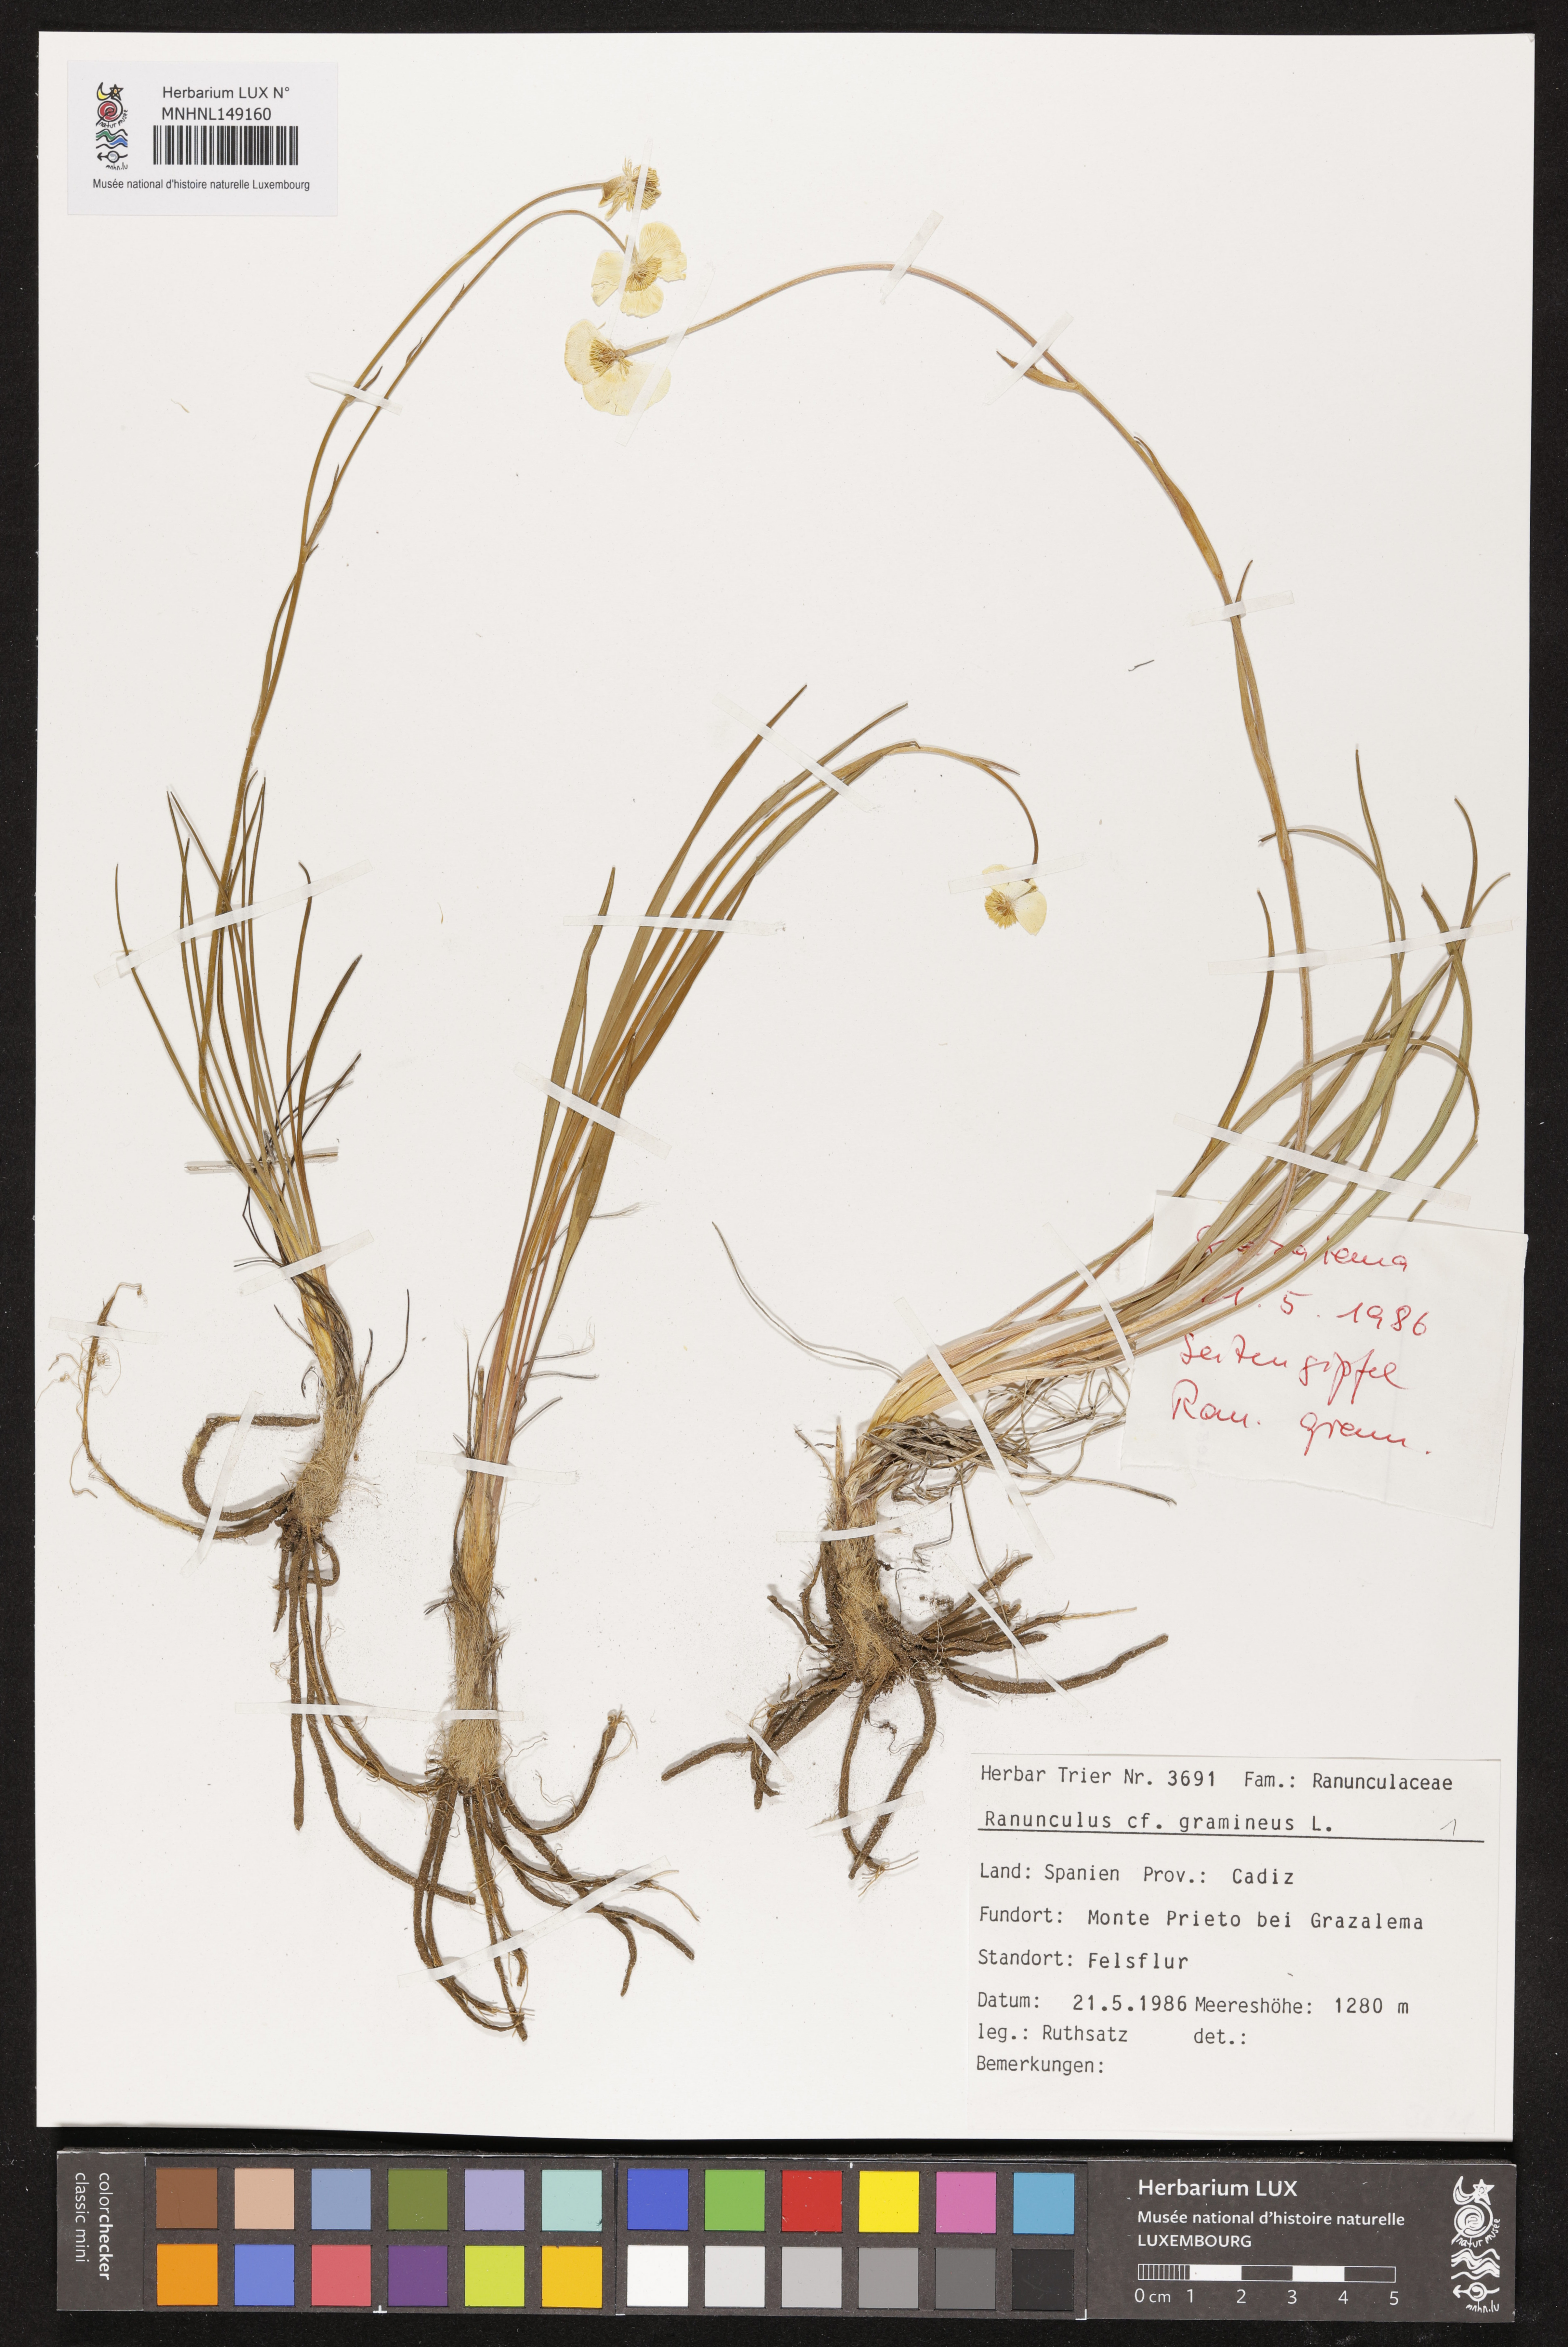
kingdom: Plantae
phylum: Tracheophyta
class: Magnoliopsida
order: Ranunculales
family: Ranunculaceae
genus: Ranunculus
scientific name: Ranunculus gramineus
